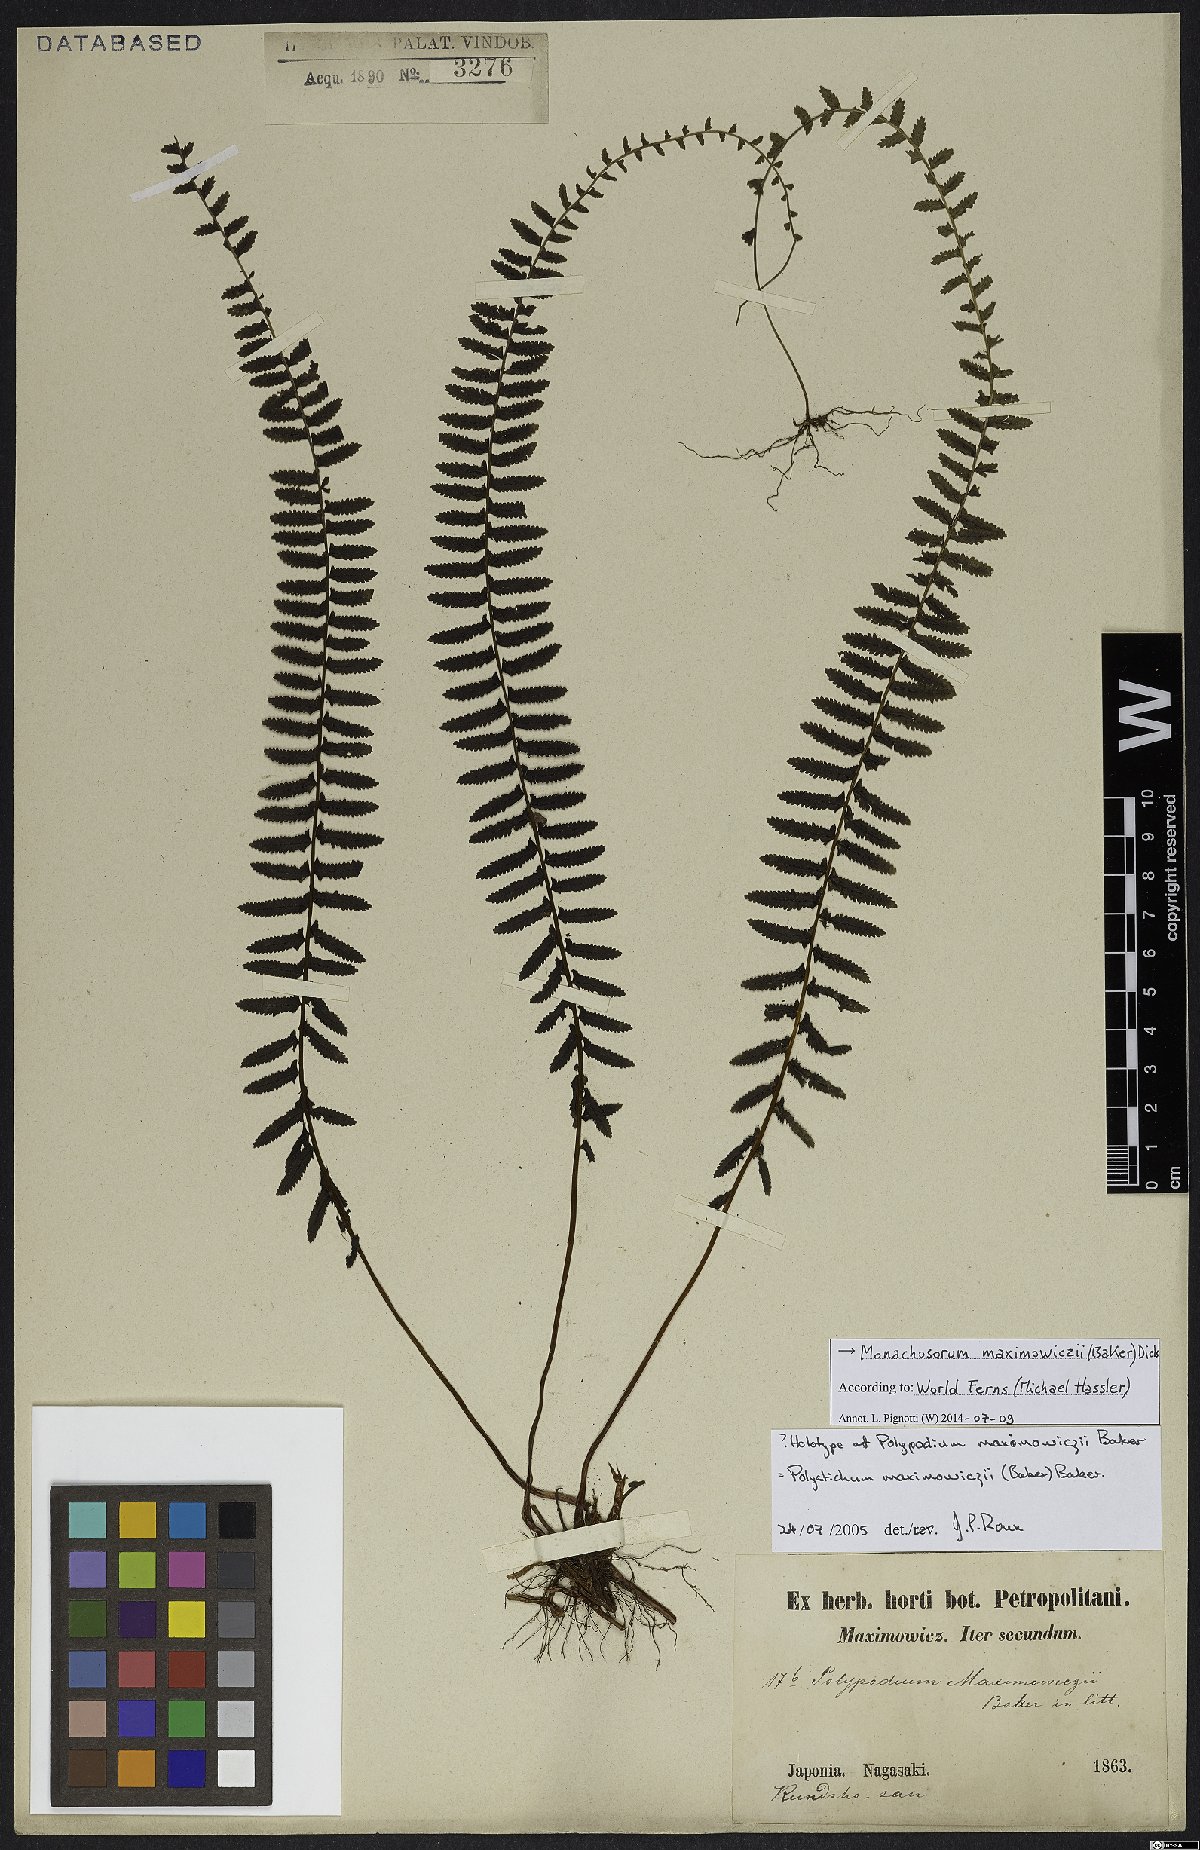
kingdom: Plantae
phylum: Tracheophyta
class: Polypodiopsida
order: Polypodiales
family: Dennstaedtiaceae
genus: Monachosorum
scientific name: Monachosorum maximowiczii
